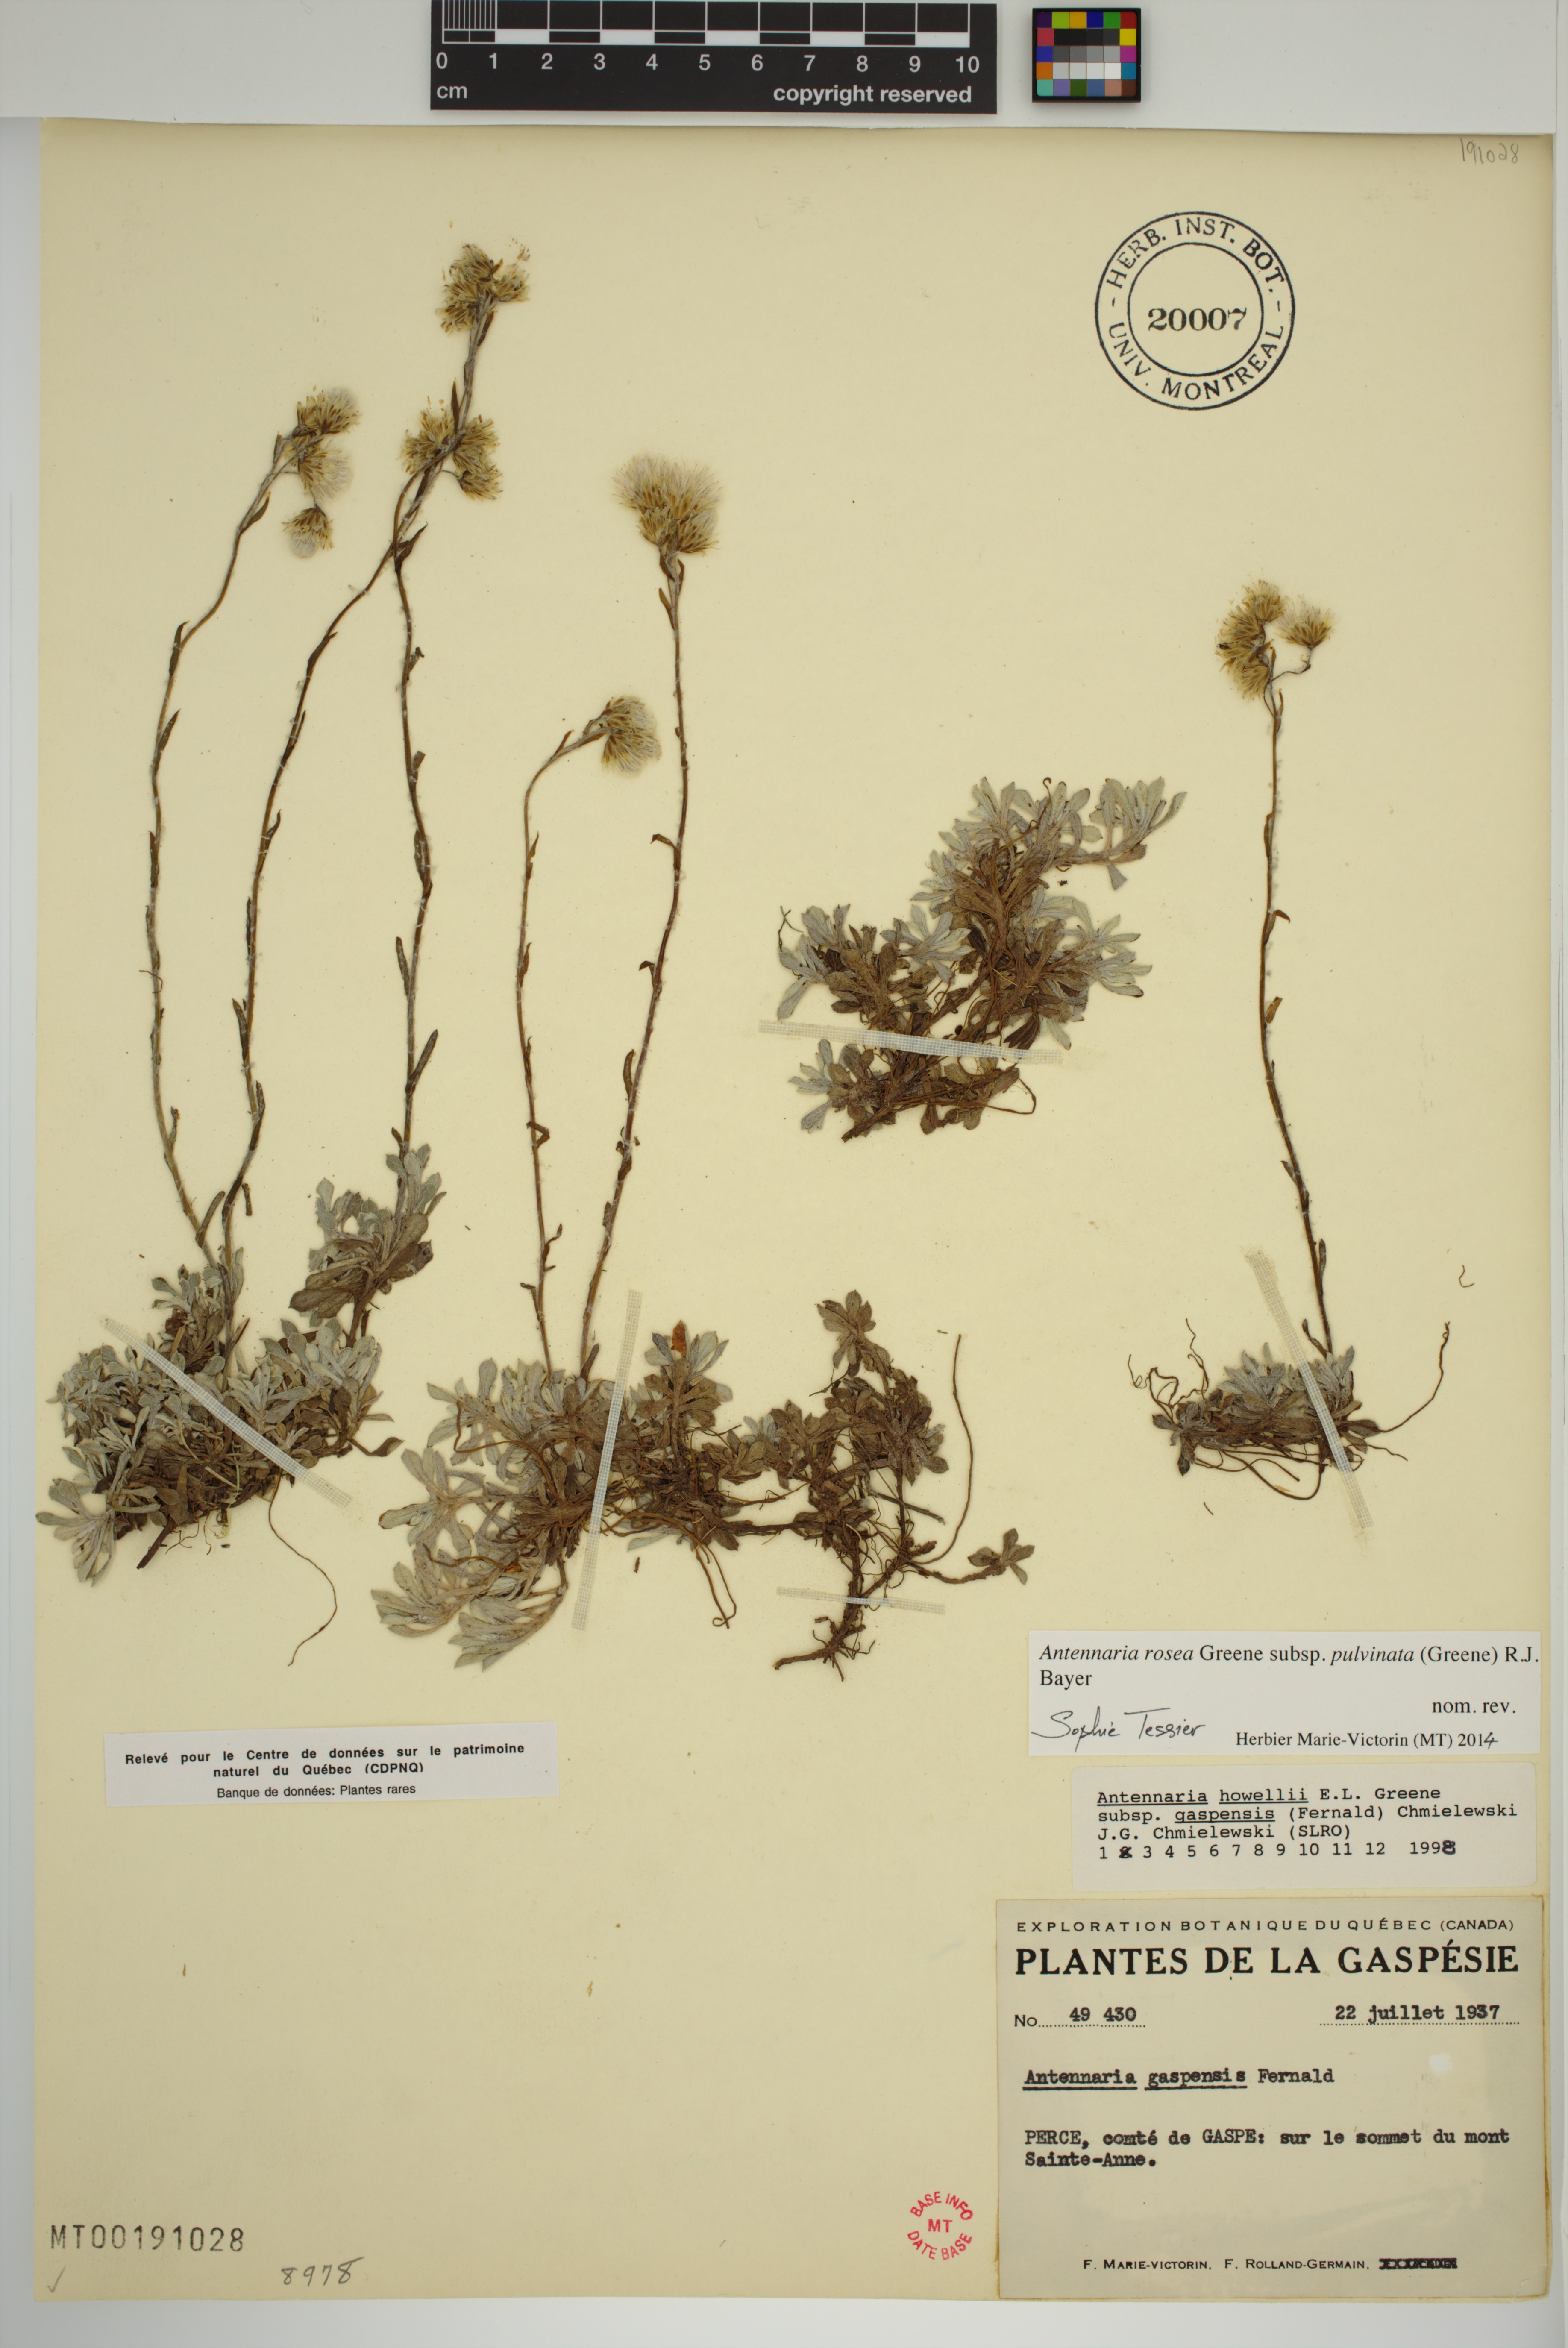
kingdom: Plantae
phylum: Tracheophyta
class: Magnoliopsida
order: Asterales
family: Asteraceae
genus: Antennaria
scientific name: Antennaria rosea
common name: Rosy pussytoes
